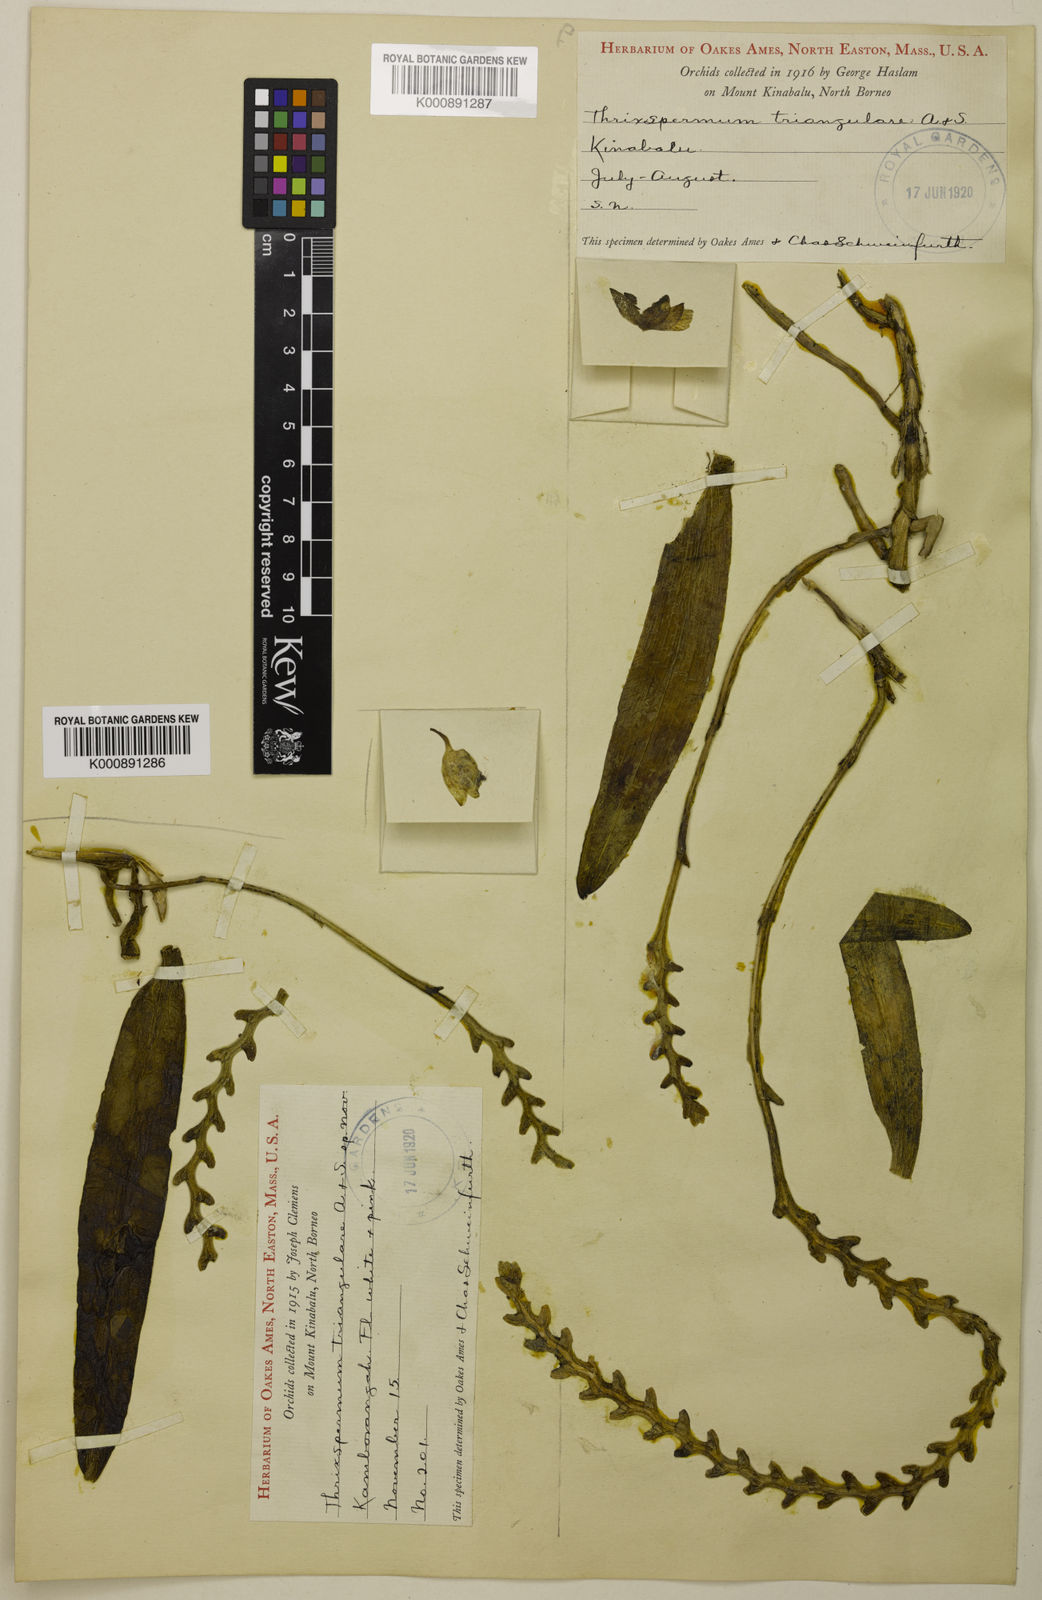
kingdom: Plantae
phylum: Tracheophyta
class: Liliopsida
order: Asparagales
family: Orchidaceae
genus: Thrixspermum
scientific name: Thrixspermum triangulare
